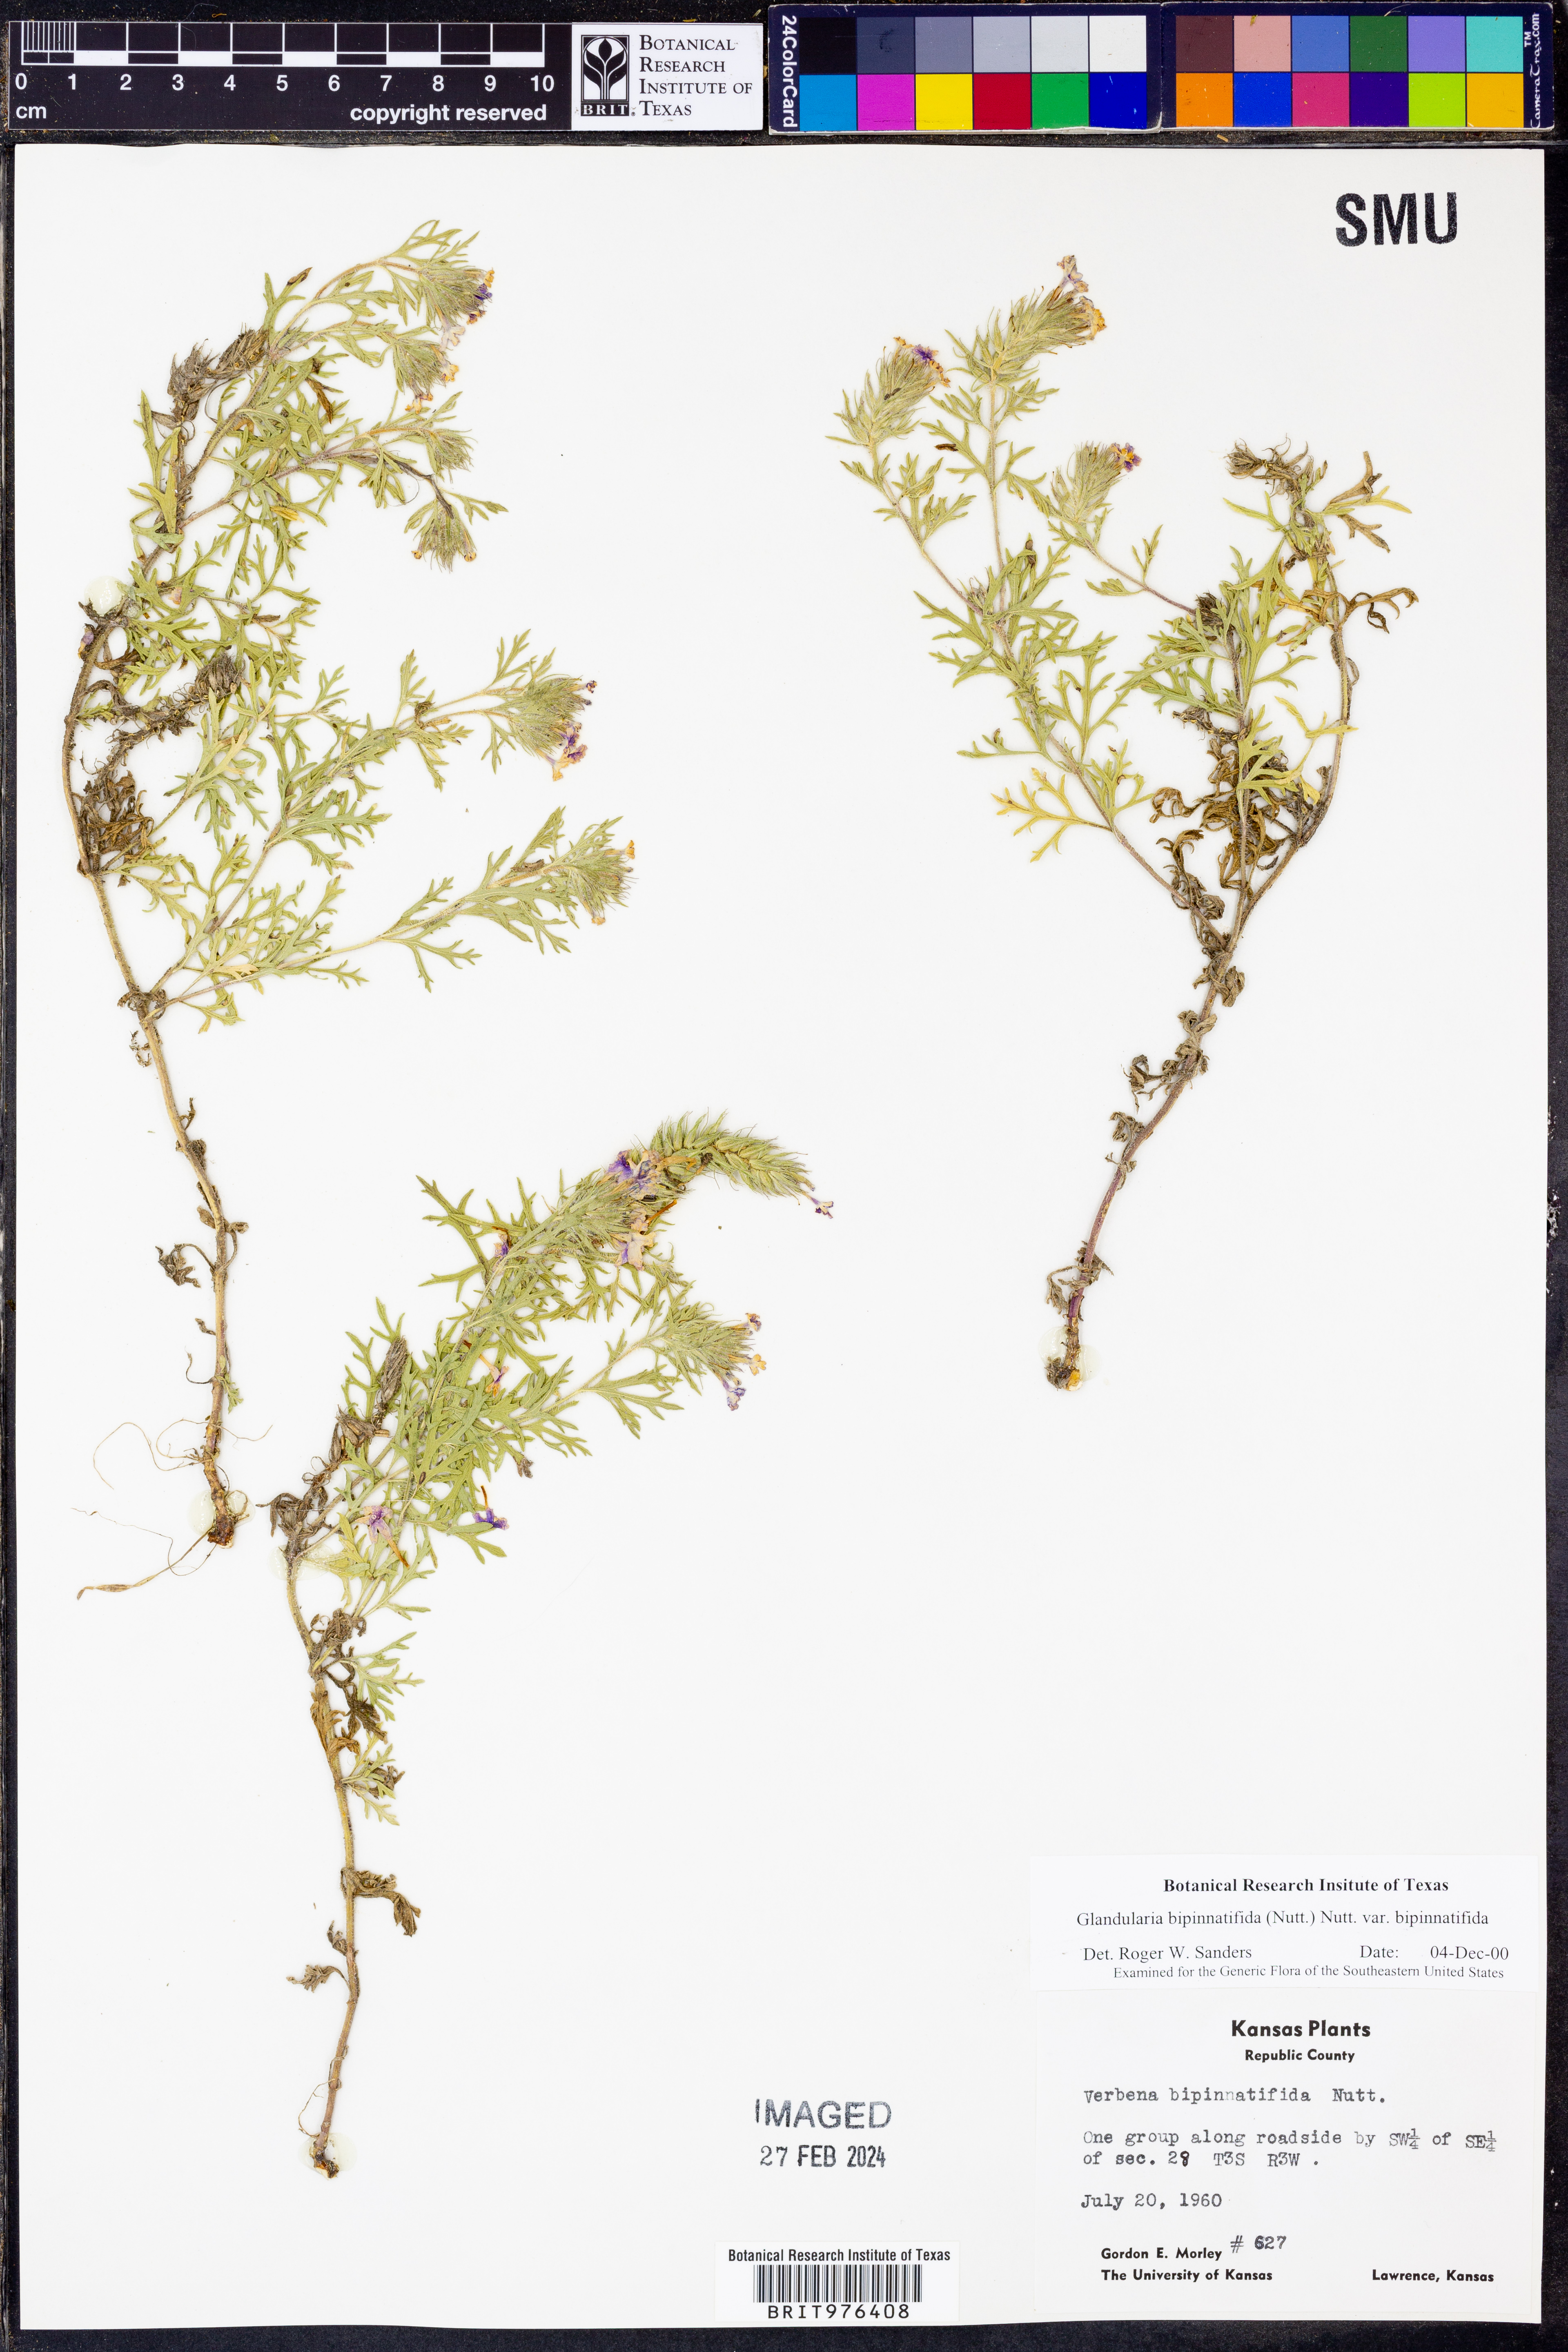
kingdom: Plantae
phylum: Tracheophyta
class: Magnoliopsida
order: Lamiales
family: Verbenaceae
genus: Verbena
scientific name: Verbena bipinnatifida
